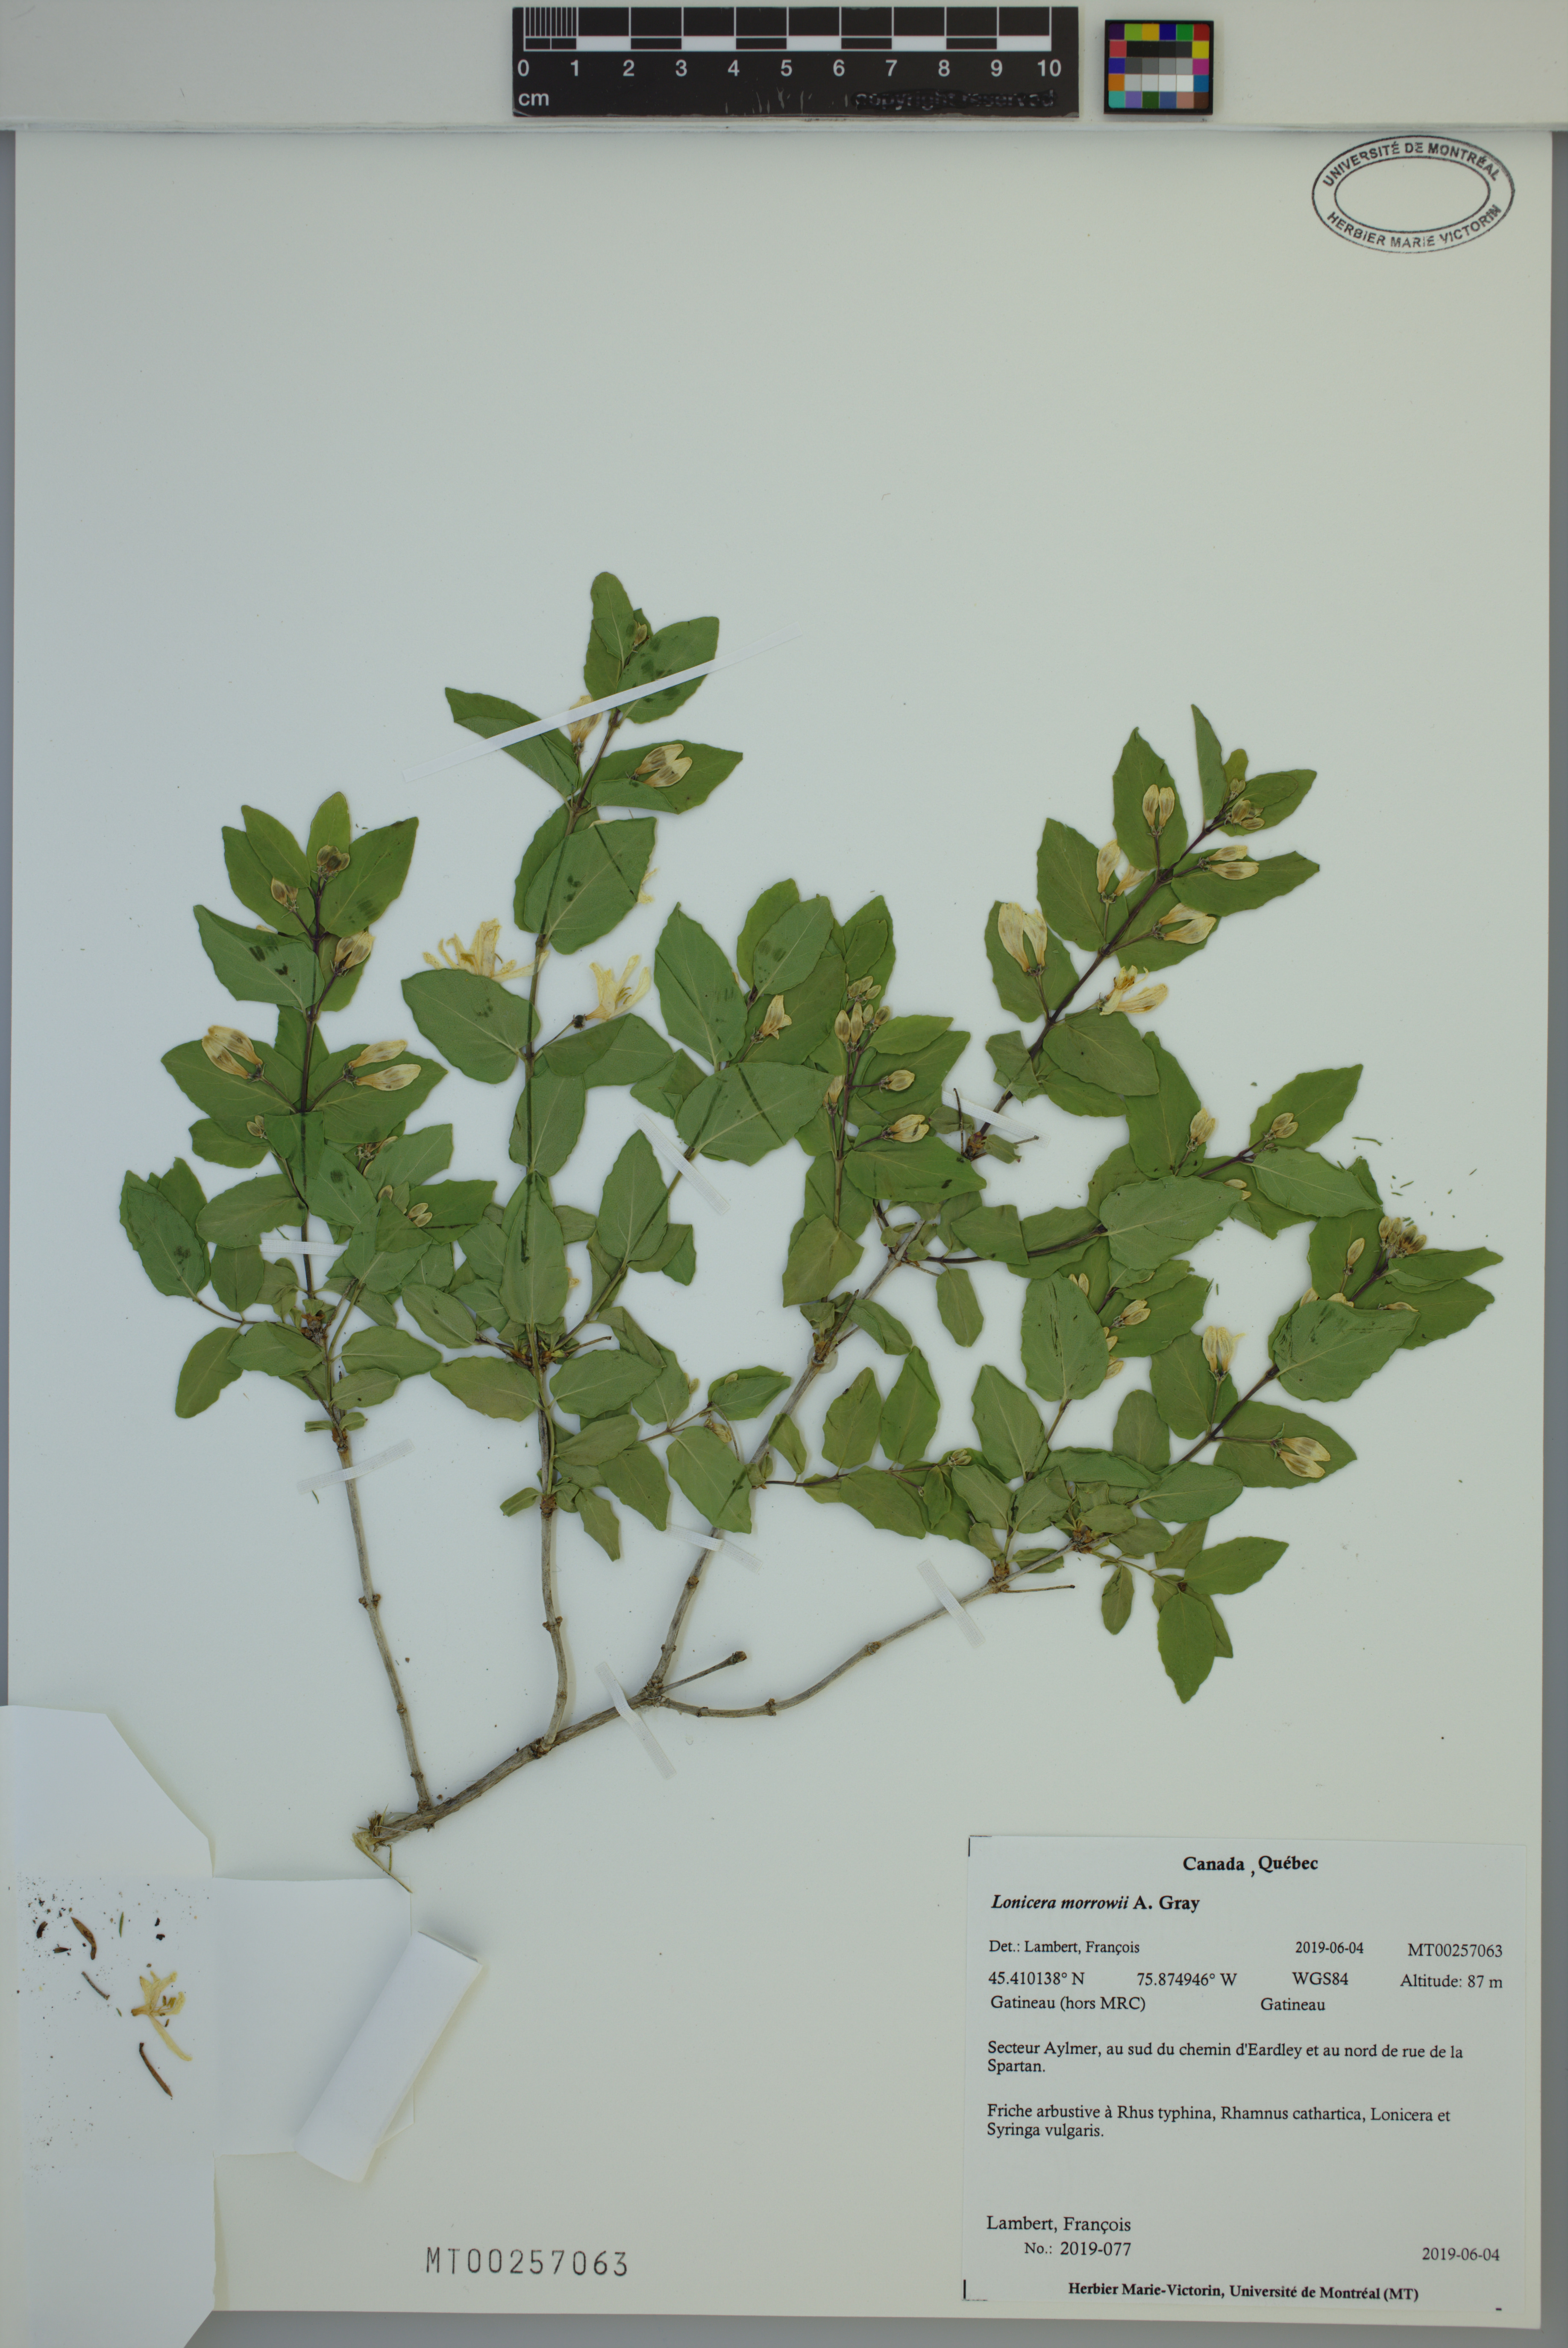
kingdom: Plantae
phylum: Tracheophyta
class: Magnoliopsida
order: Dipsacales
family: Caprifoliaceae
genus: Lonicera
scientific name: Lonicera morrowii
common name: Morrow's honeysuckle
